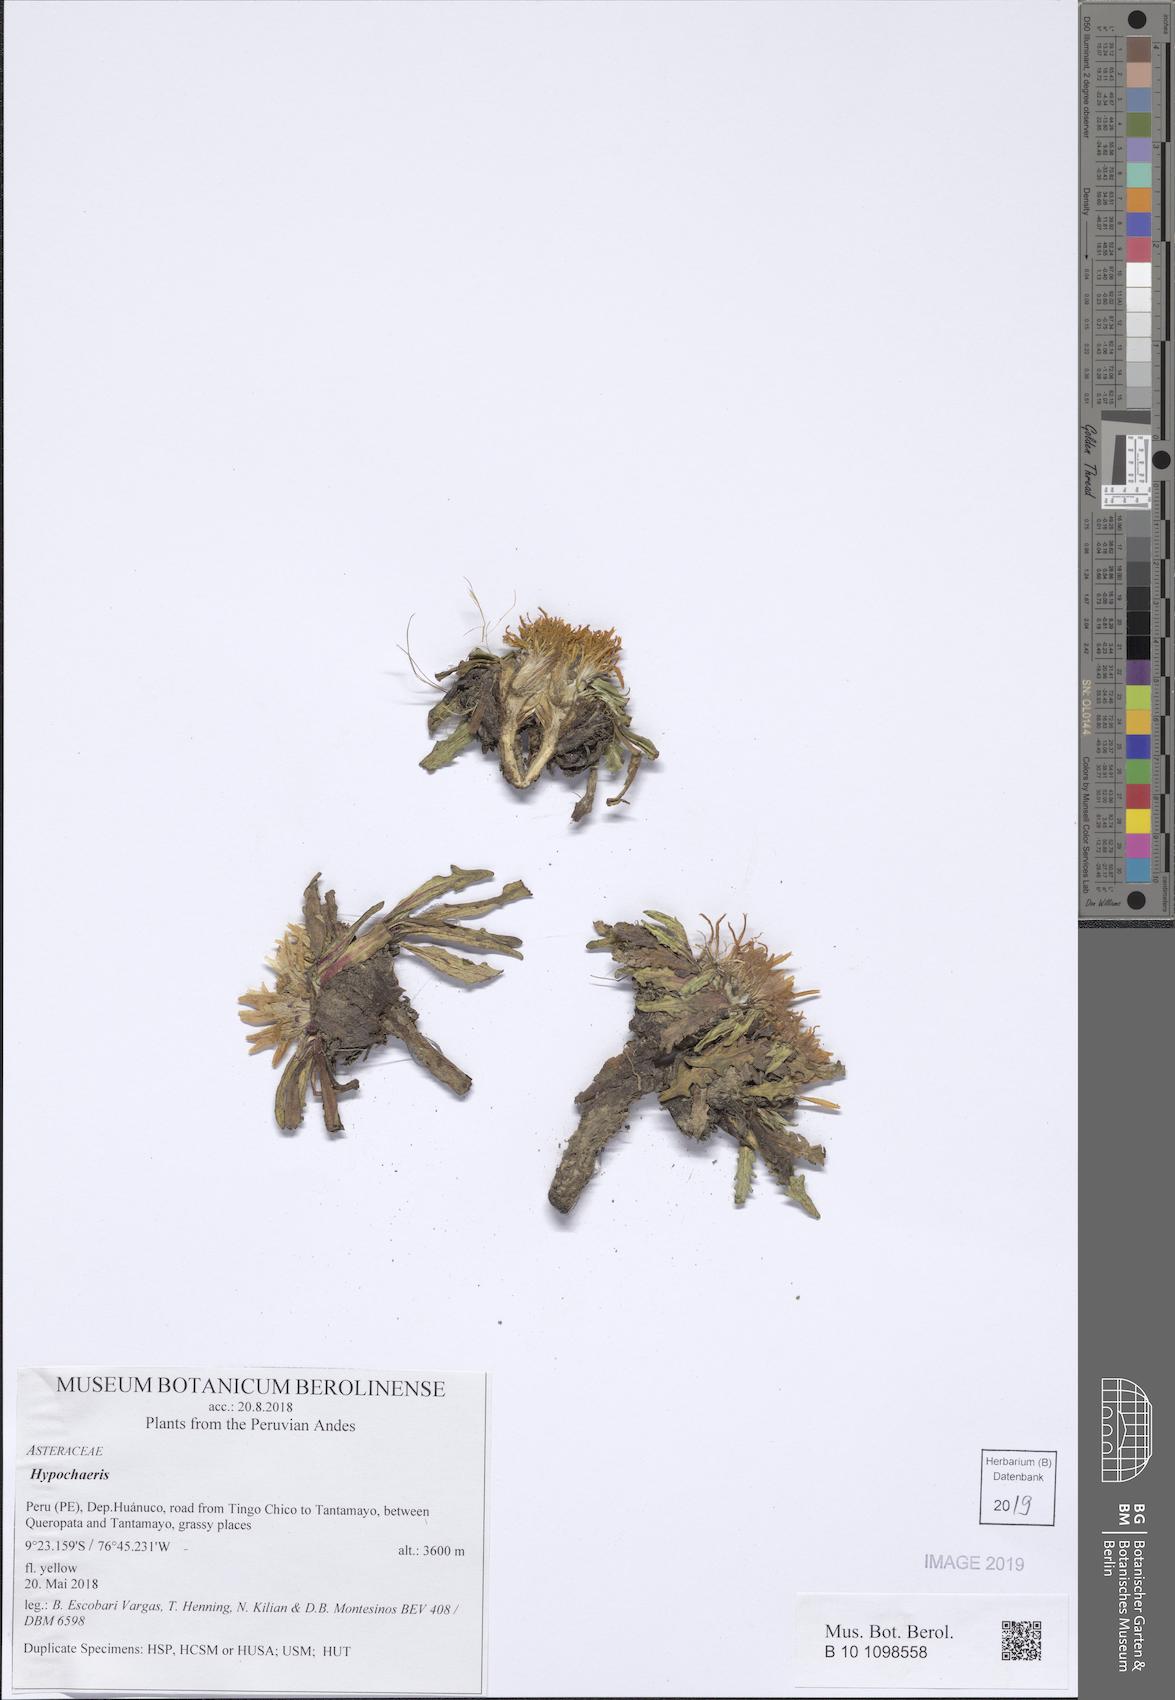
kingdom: Plantae
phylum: Tracheophyta
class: Magnoliopsida
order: Asterales
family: Asteraceae
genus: Hypochaeris
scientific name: Hypochaeris
